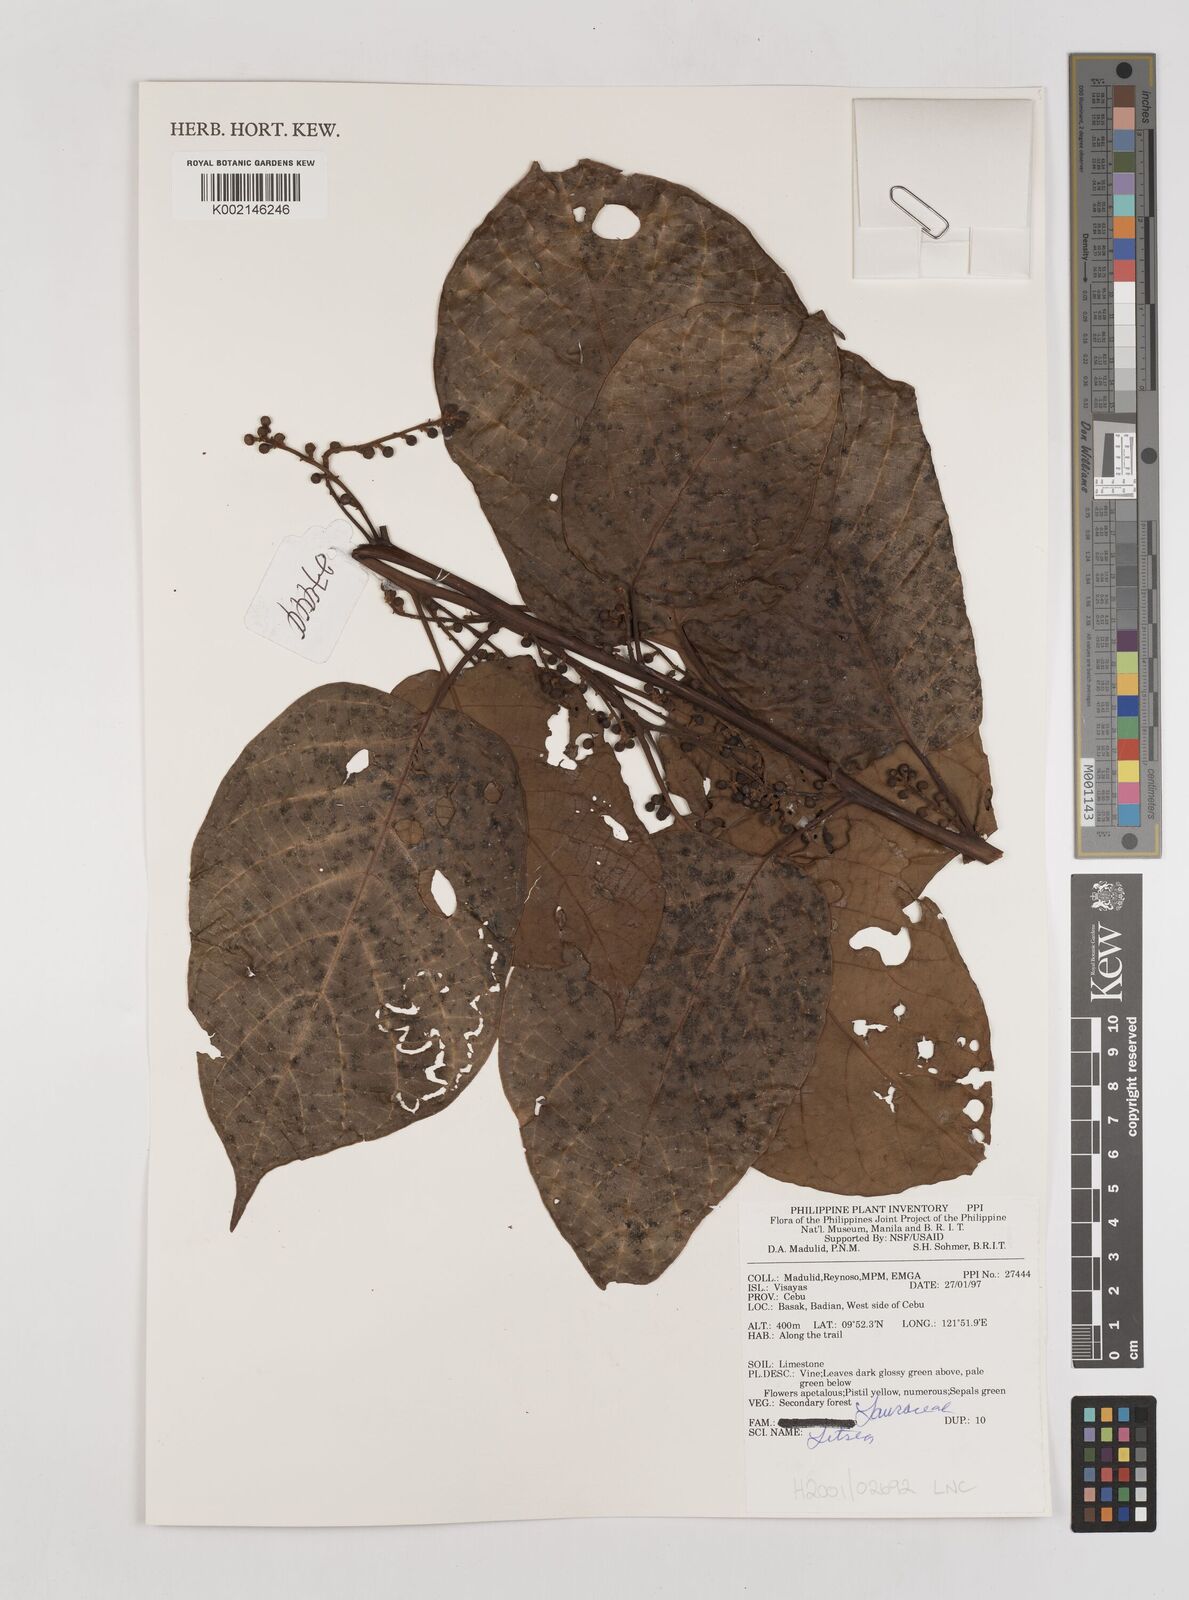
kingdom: Plantae
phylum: Tracheophyta
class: Magnoliopsida
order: Laurales
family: Lauraceae
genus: Litsea
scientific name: Litsea
